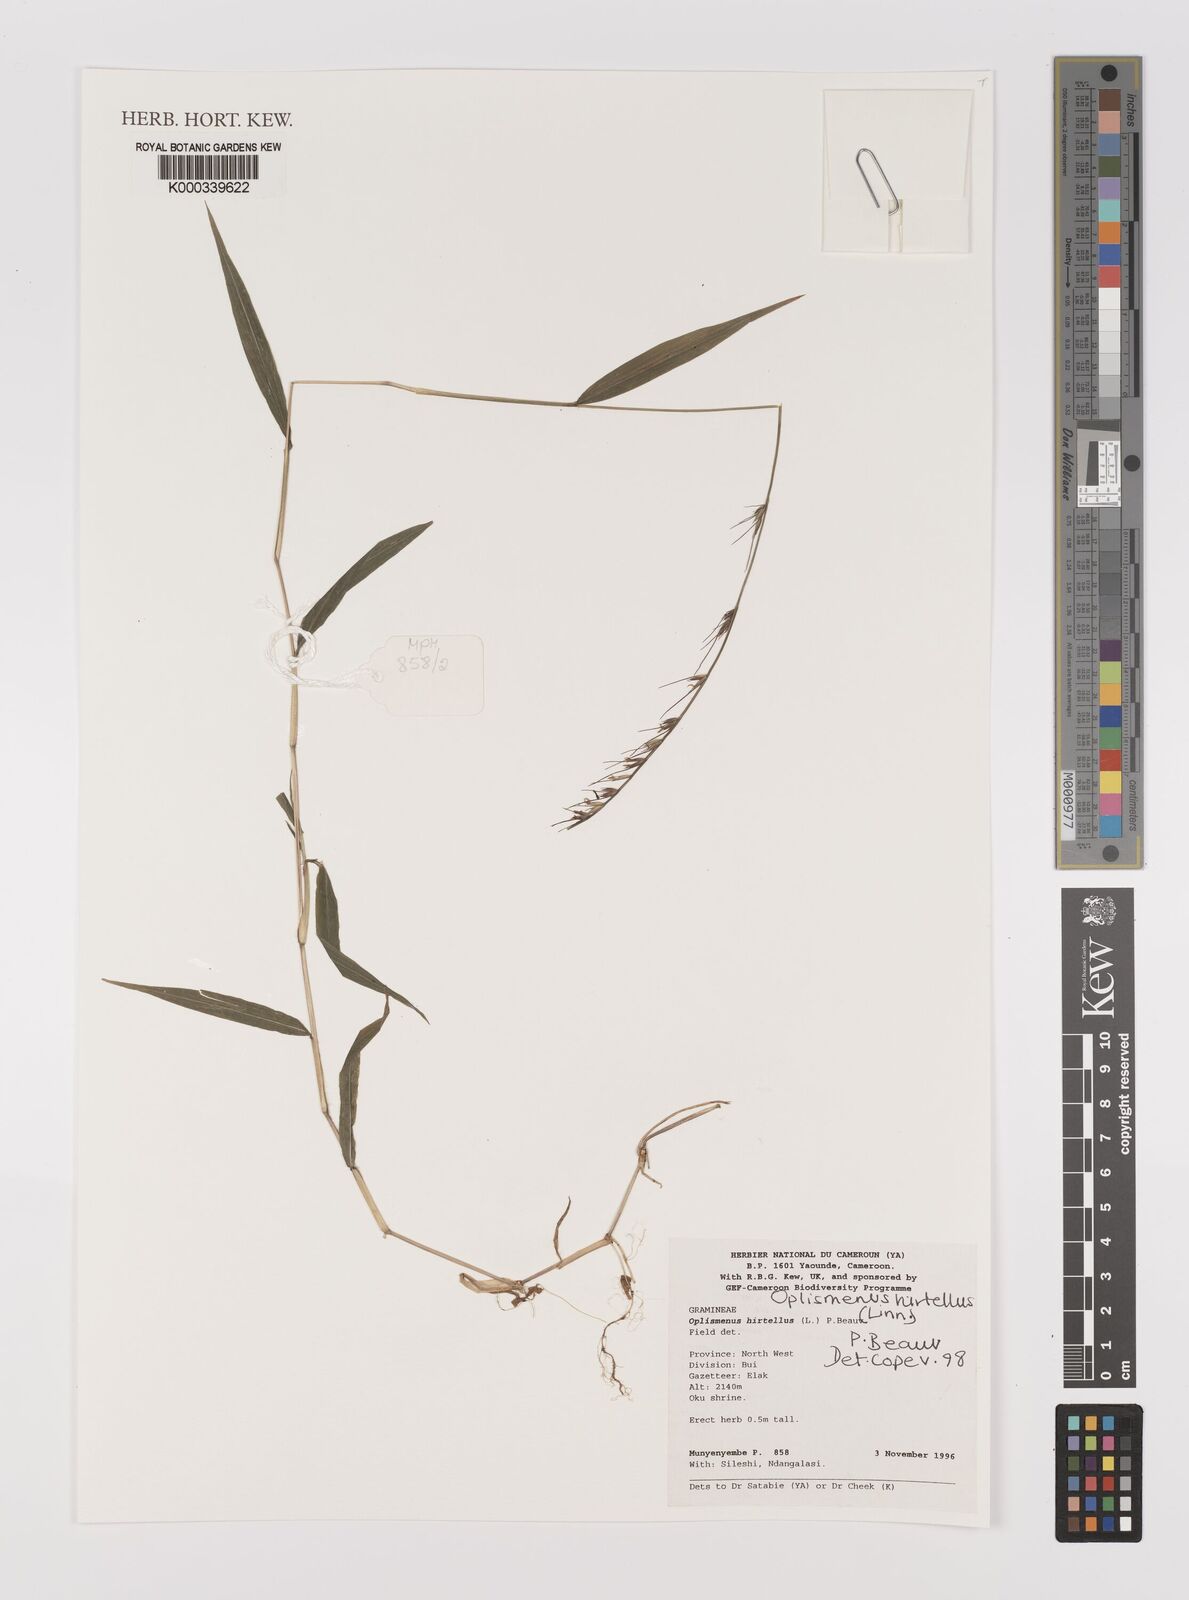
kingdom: Plantae
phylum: Tracheophyta
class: Liliopsida
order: Poales
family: Poaceae
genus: Oplismenus
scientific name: Oplismenus hirtellus
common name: Basketgrass
